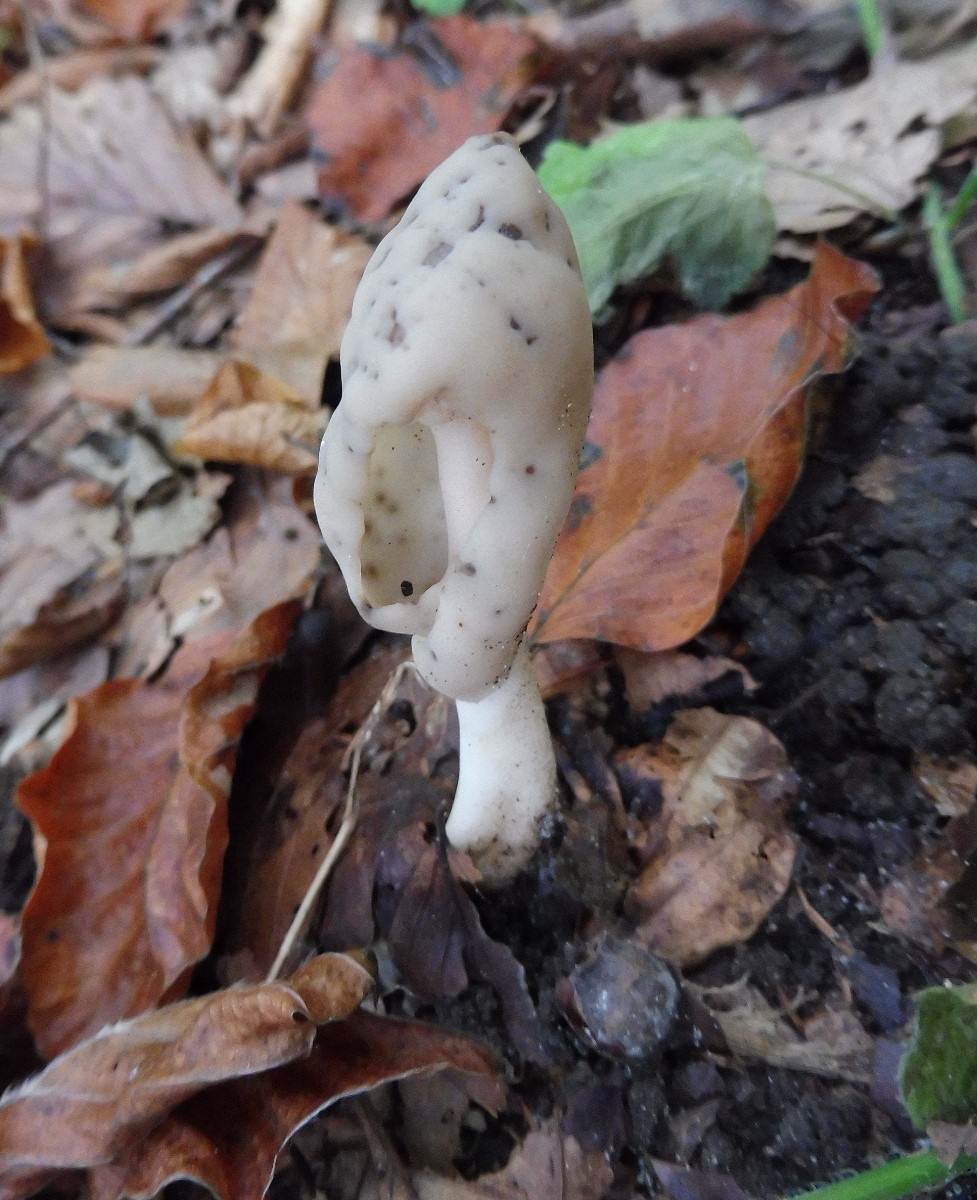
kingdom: Fungi
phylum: Ascomycota
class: Pezizomycetes
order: Pezizales
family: Helvellaceae
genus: Helvella
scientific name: Helvella elastica
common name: elastik-foldhat
